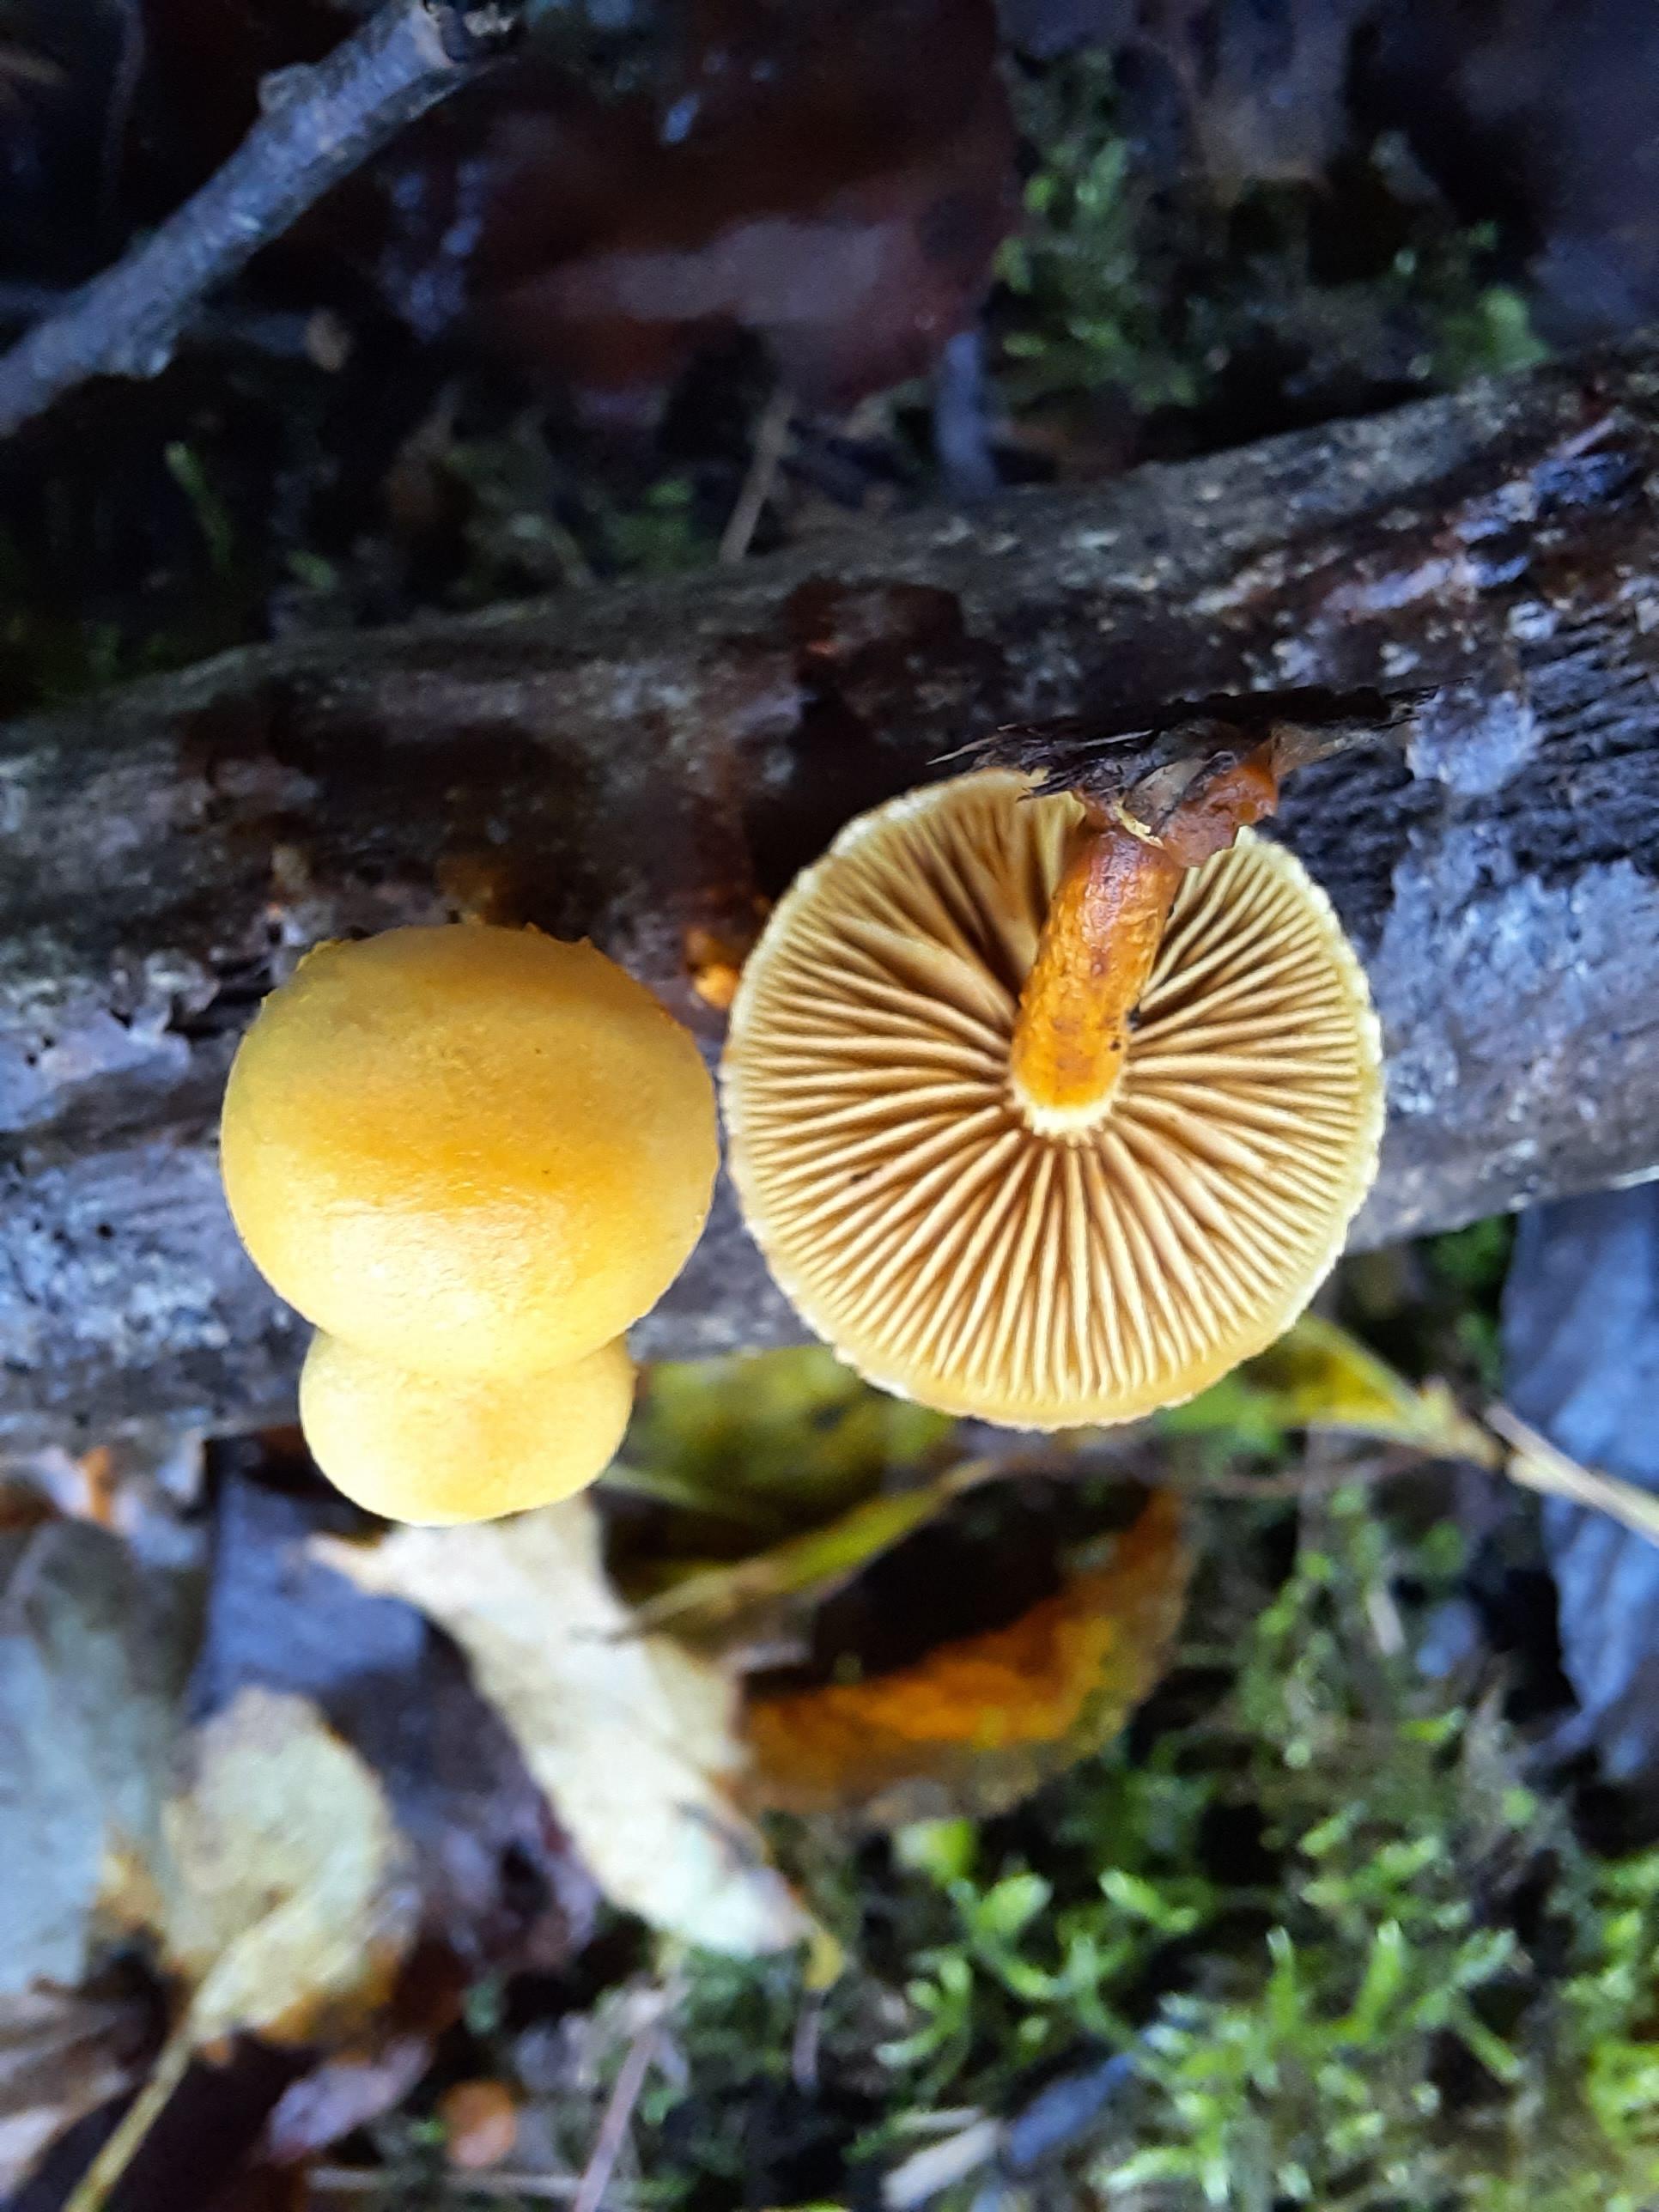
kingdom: Fungi
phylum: Basidiomycota
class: Agaricomycetes
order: Agaricales
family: Strophariaceae
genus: Pholiota
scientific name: Pholiota tuberculosa
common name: finskællet skælhat
